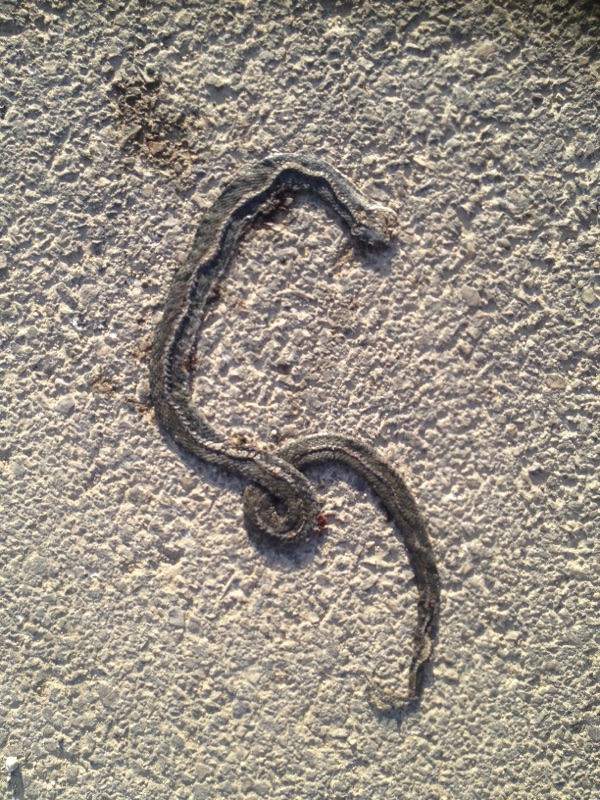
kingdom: Animalia
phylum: Chordata
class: Squamata
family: Colubridae
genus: Natrix
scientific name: Natrix natrix
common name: Grass snake
